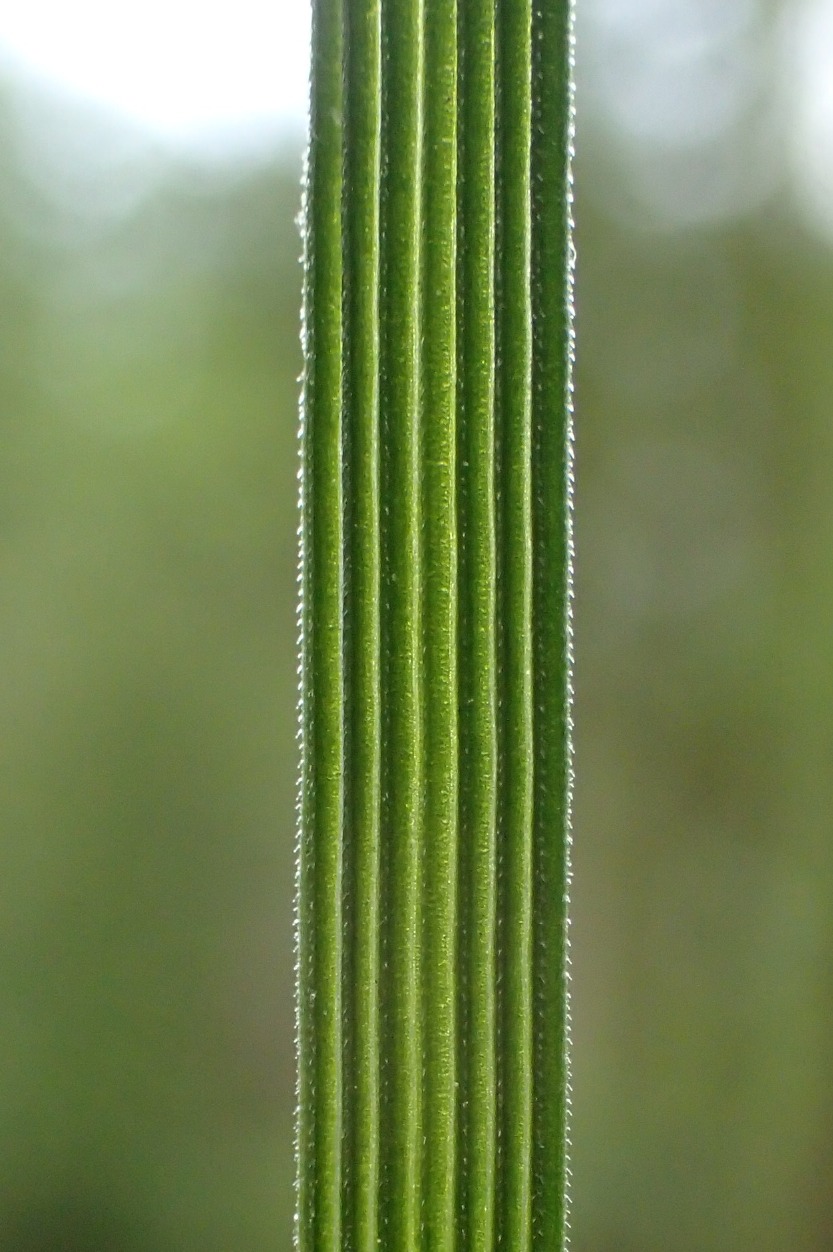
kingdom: Plantae
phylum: Tracheophyta
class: Liliopsida
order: Poales
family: Poaceae
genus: Deschampsia
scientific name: Deschampsia cespitosa
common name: Mose-bunke
